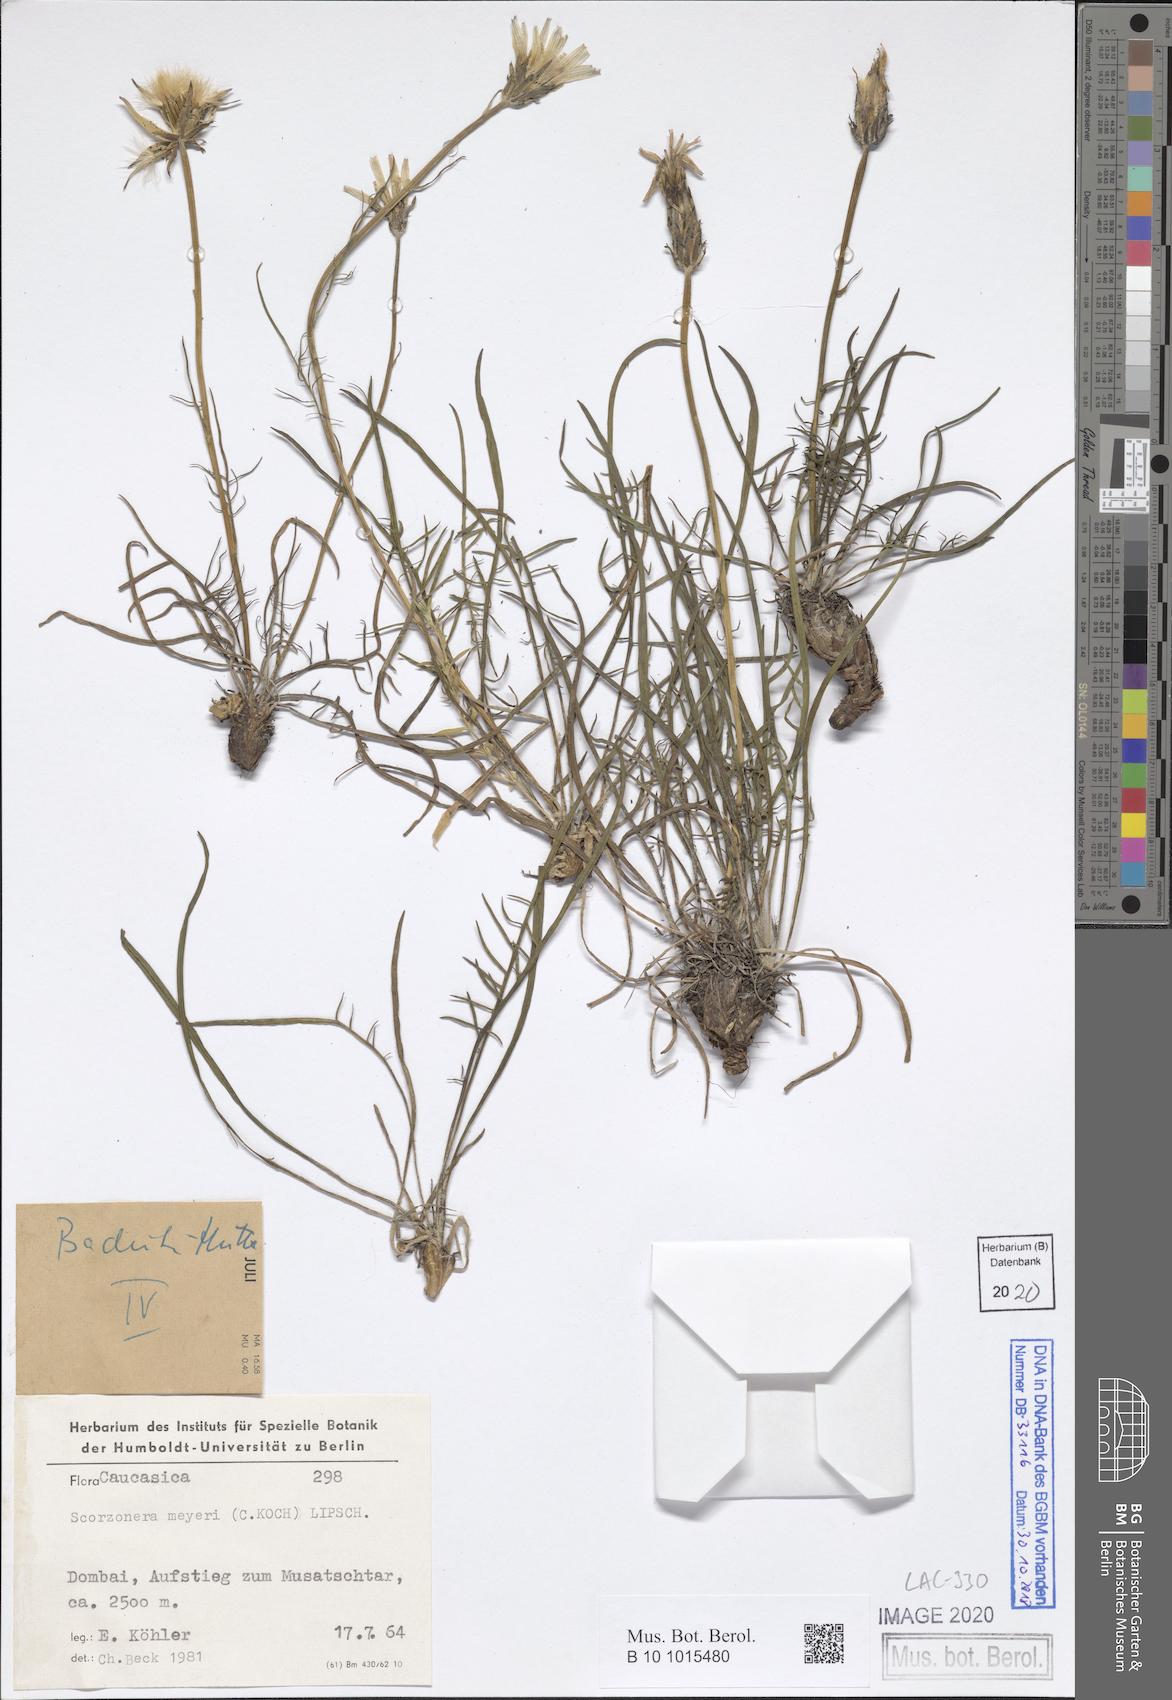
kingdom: Plantae
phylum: Tracheophyta
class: Magnoliopsida
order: Asterales
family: Asteraceae
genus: Scorzonera
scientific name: Scorzonera meyeri
